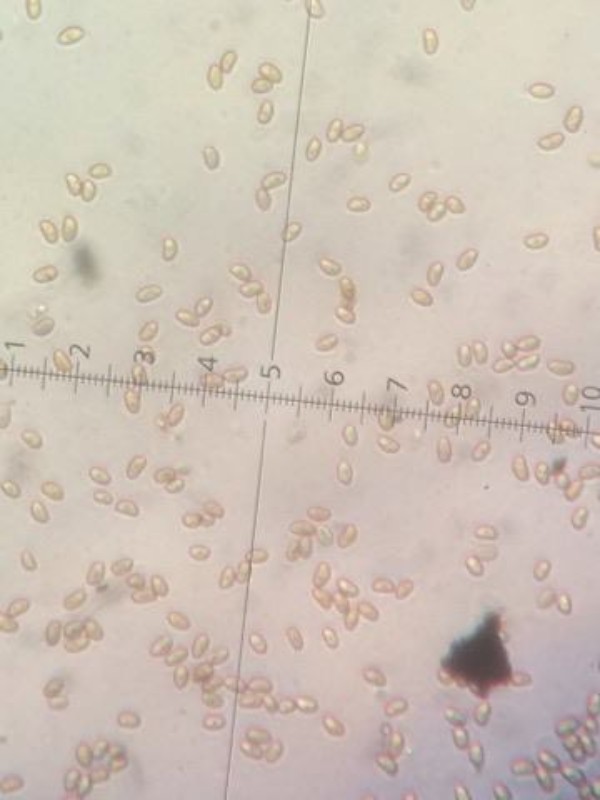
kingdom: Fungi
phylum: Basidiomycota
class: Agaricomycetes
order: Agaricales
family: Inocybaceae
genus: Pseudosperma
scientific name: Pseudosperma
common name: trævlhat
